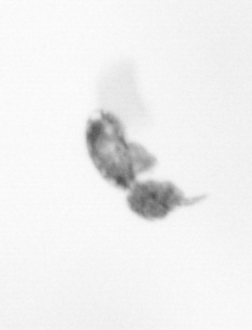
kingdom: Animalia
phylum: Arthropoda
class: Copepoda
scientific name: Copepoda
